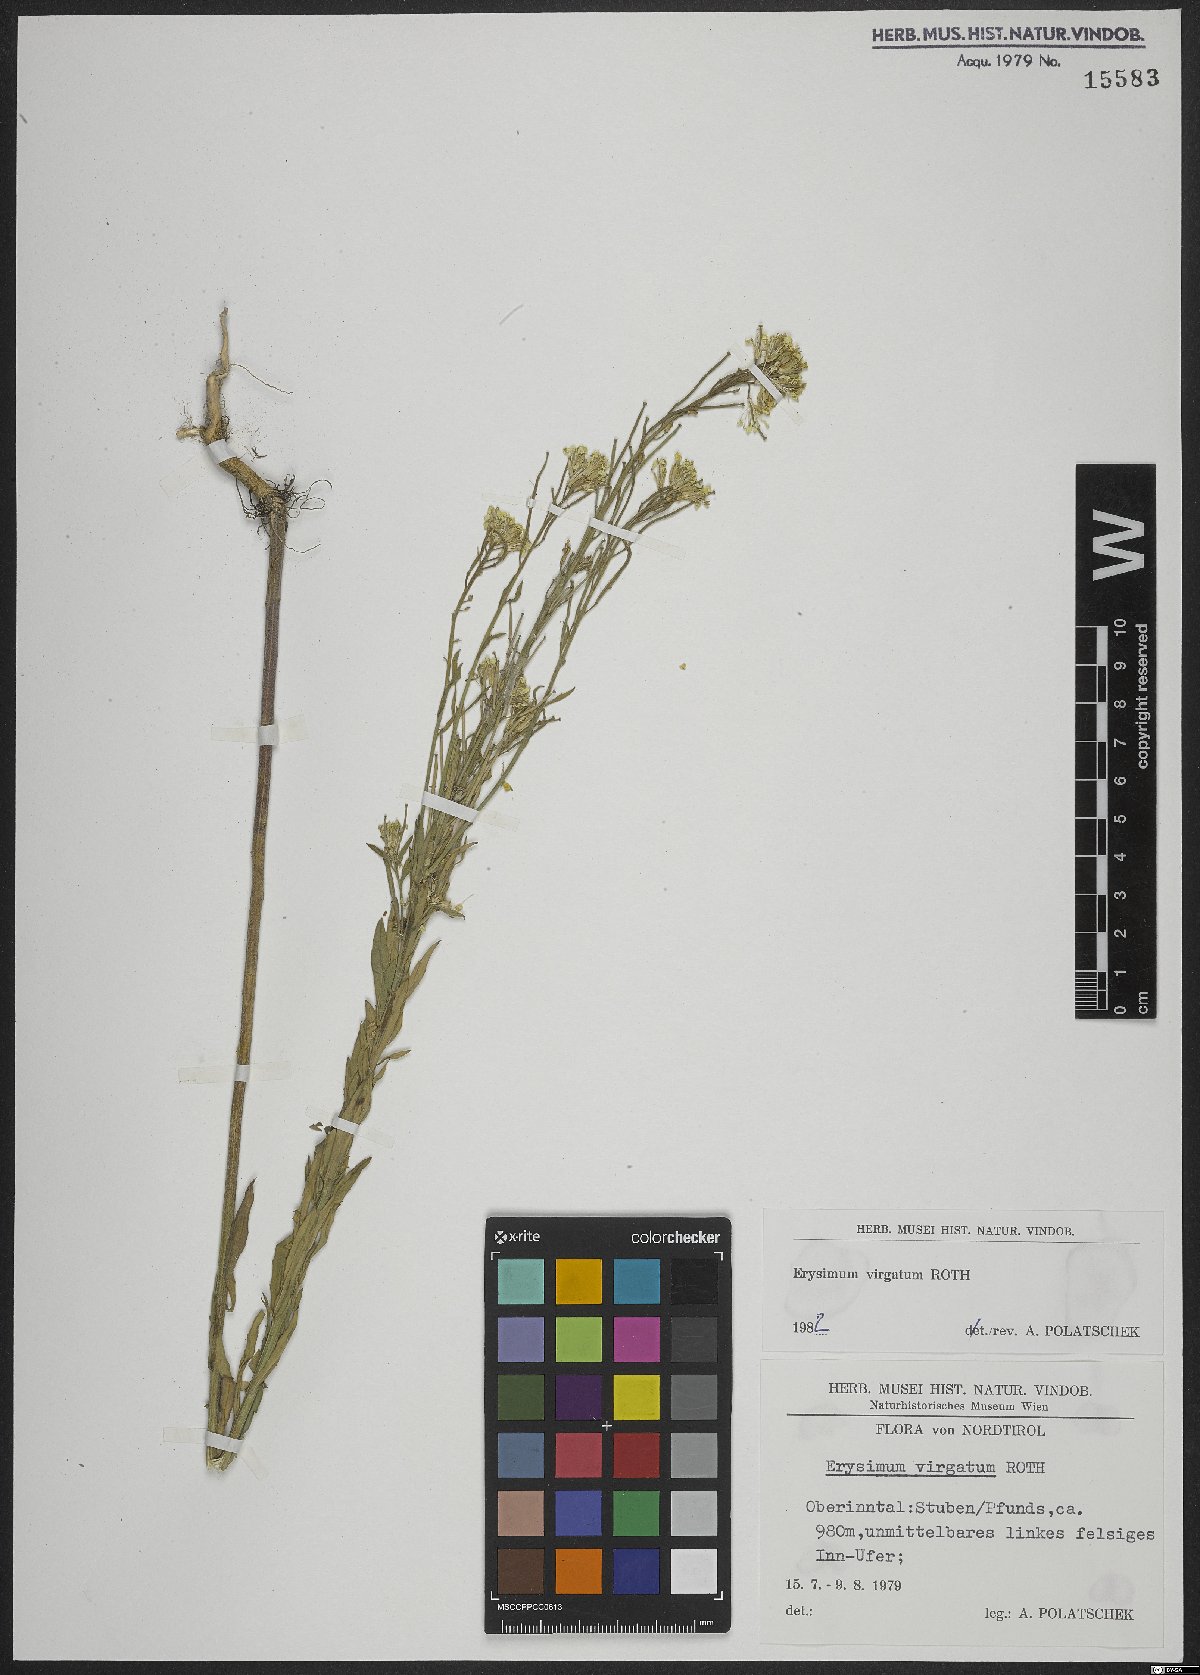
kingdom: Plantae
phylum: Tracheophyta
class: Magnoliopsida
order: Brassicales
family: Brassicaceae
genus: Erysimum
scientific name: Erysimum virgatum
